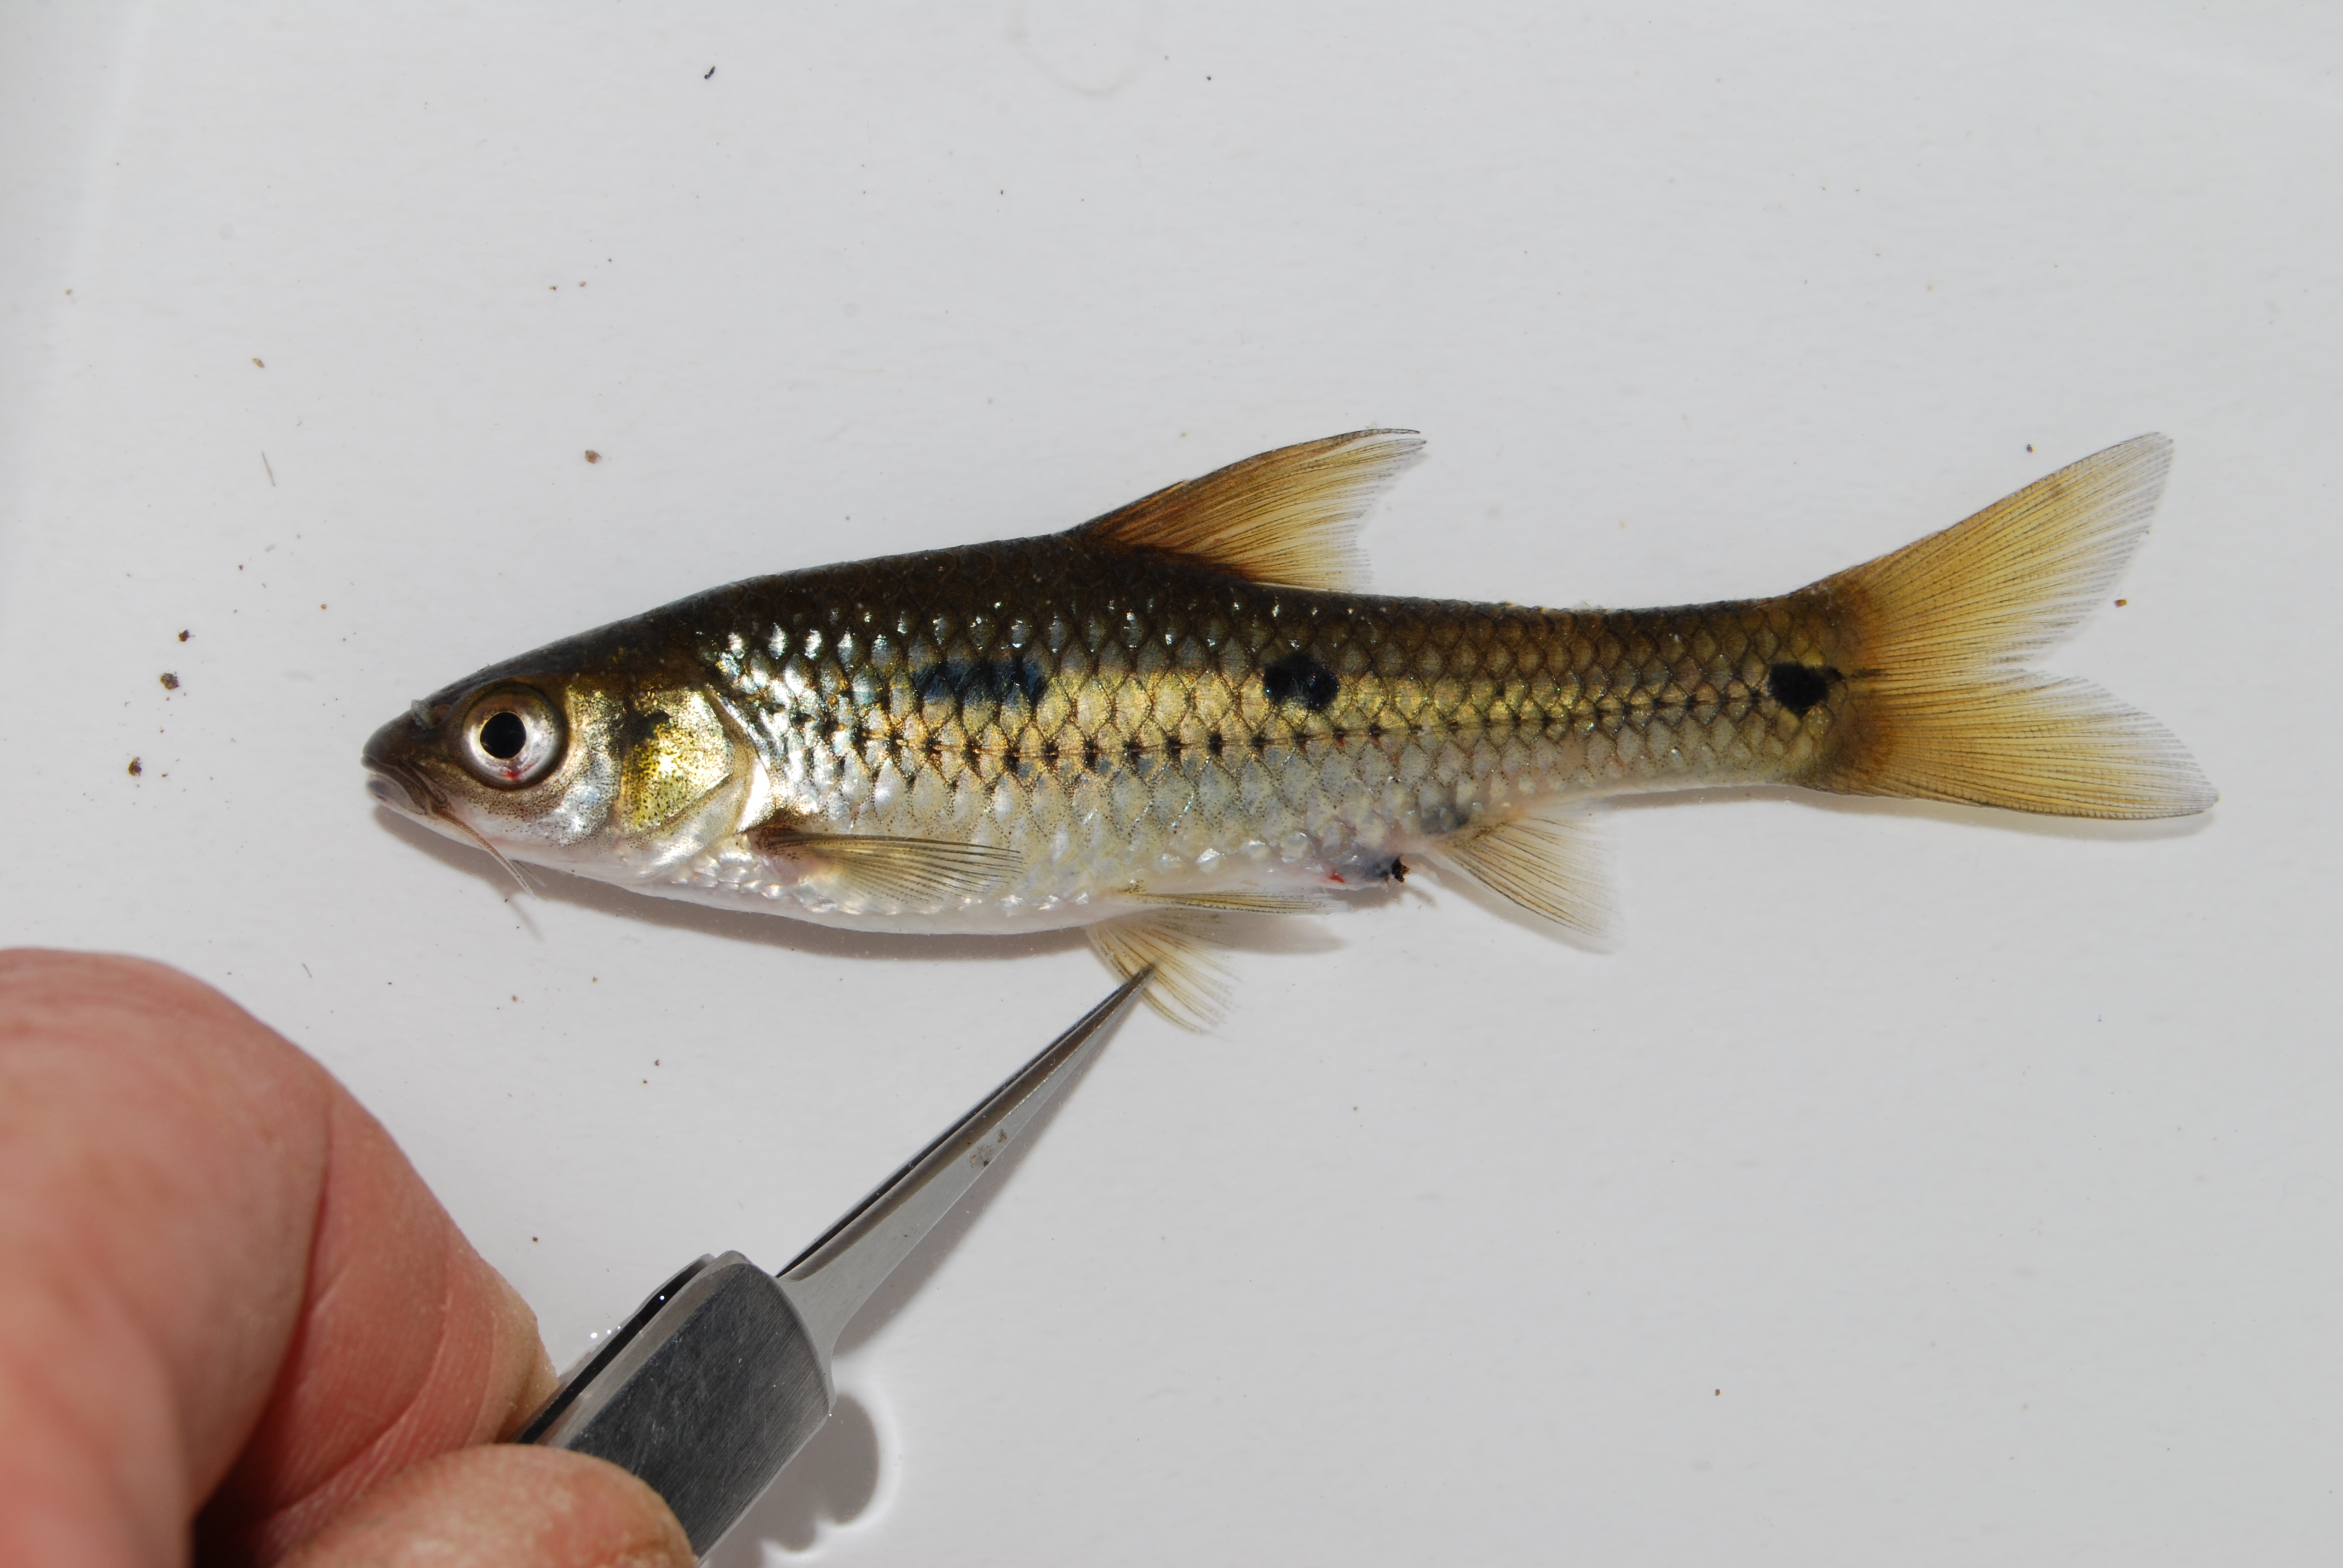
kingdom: Animalia
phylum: Chordata
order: Cypriniformes
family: Cyprinidae
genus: Enteromius
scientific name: Enteromius trimaculatus
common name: Threespot barb
